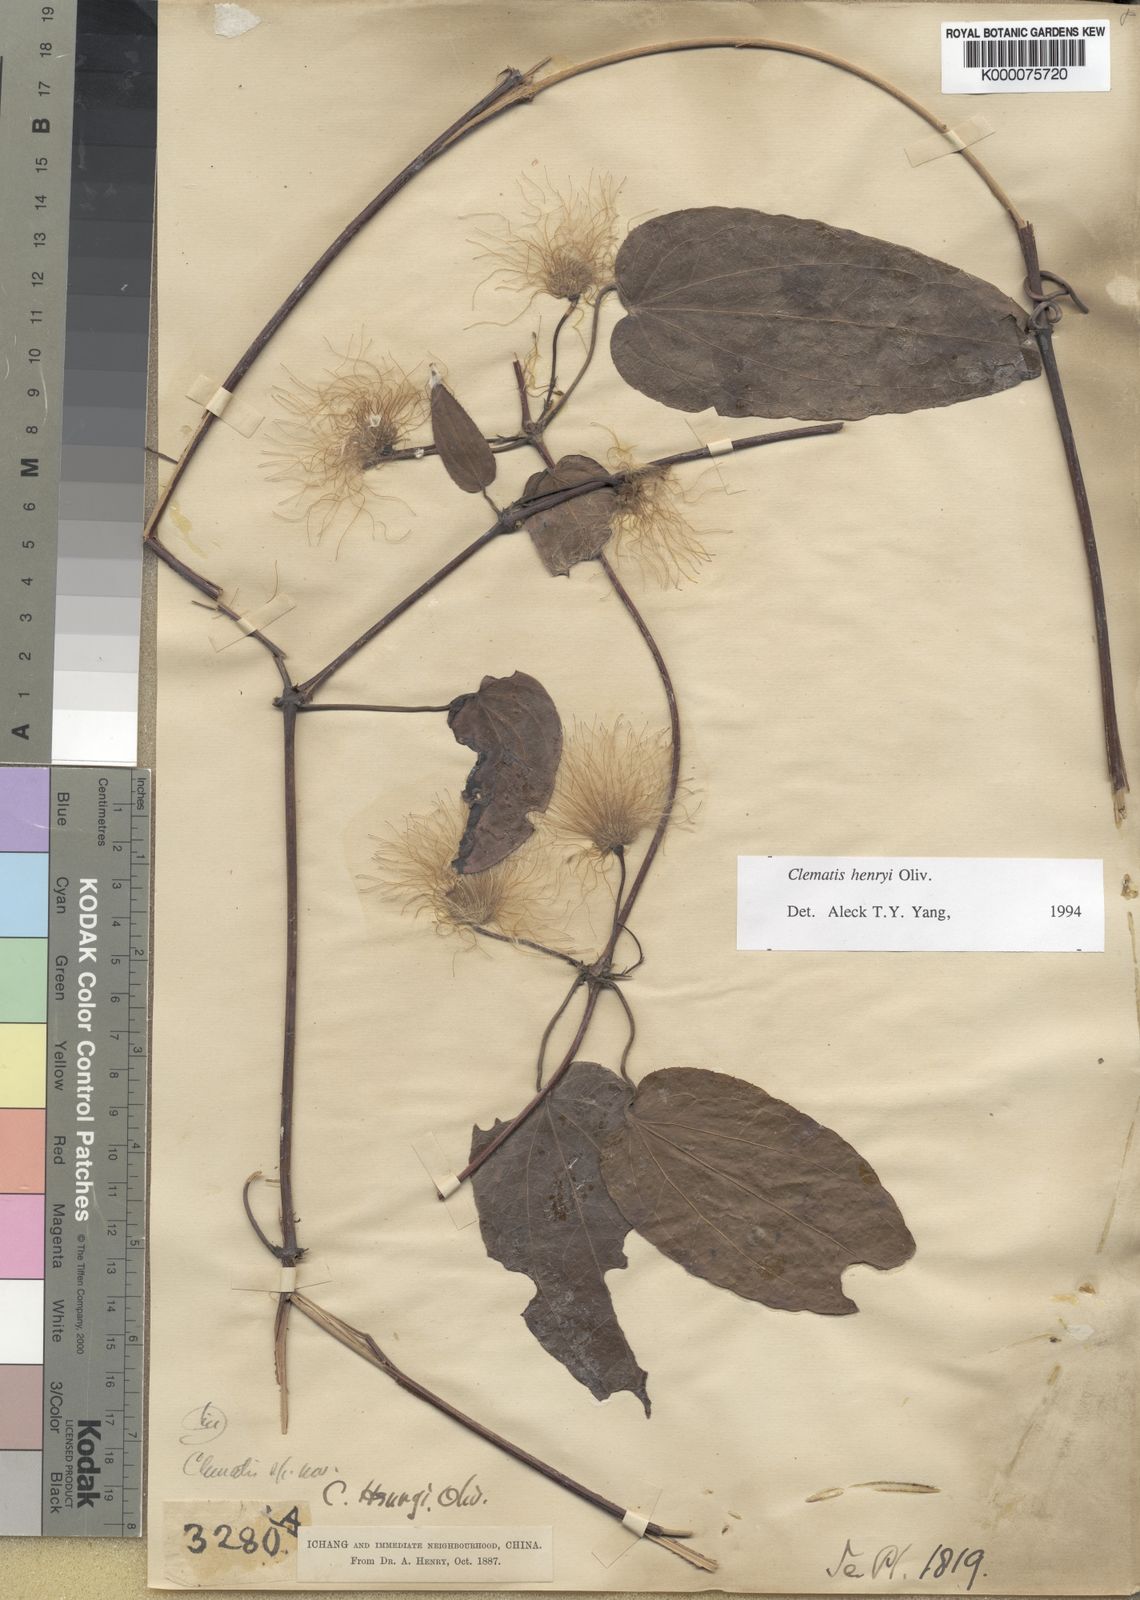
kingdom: Plantae
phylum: Tracheophyta
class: Magnoliopsida
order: Ranunculales
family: Ranunculaceae
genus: Clematis
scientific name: Clematis hayatae
